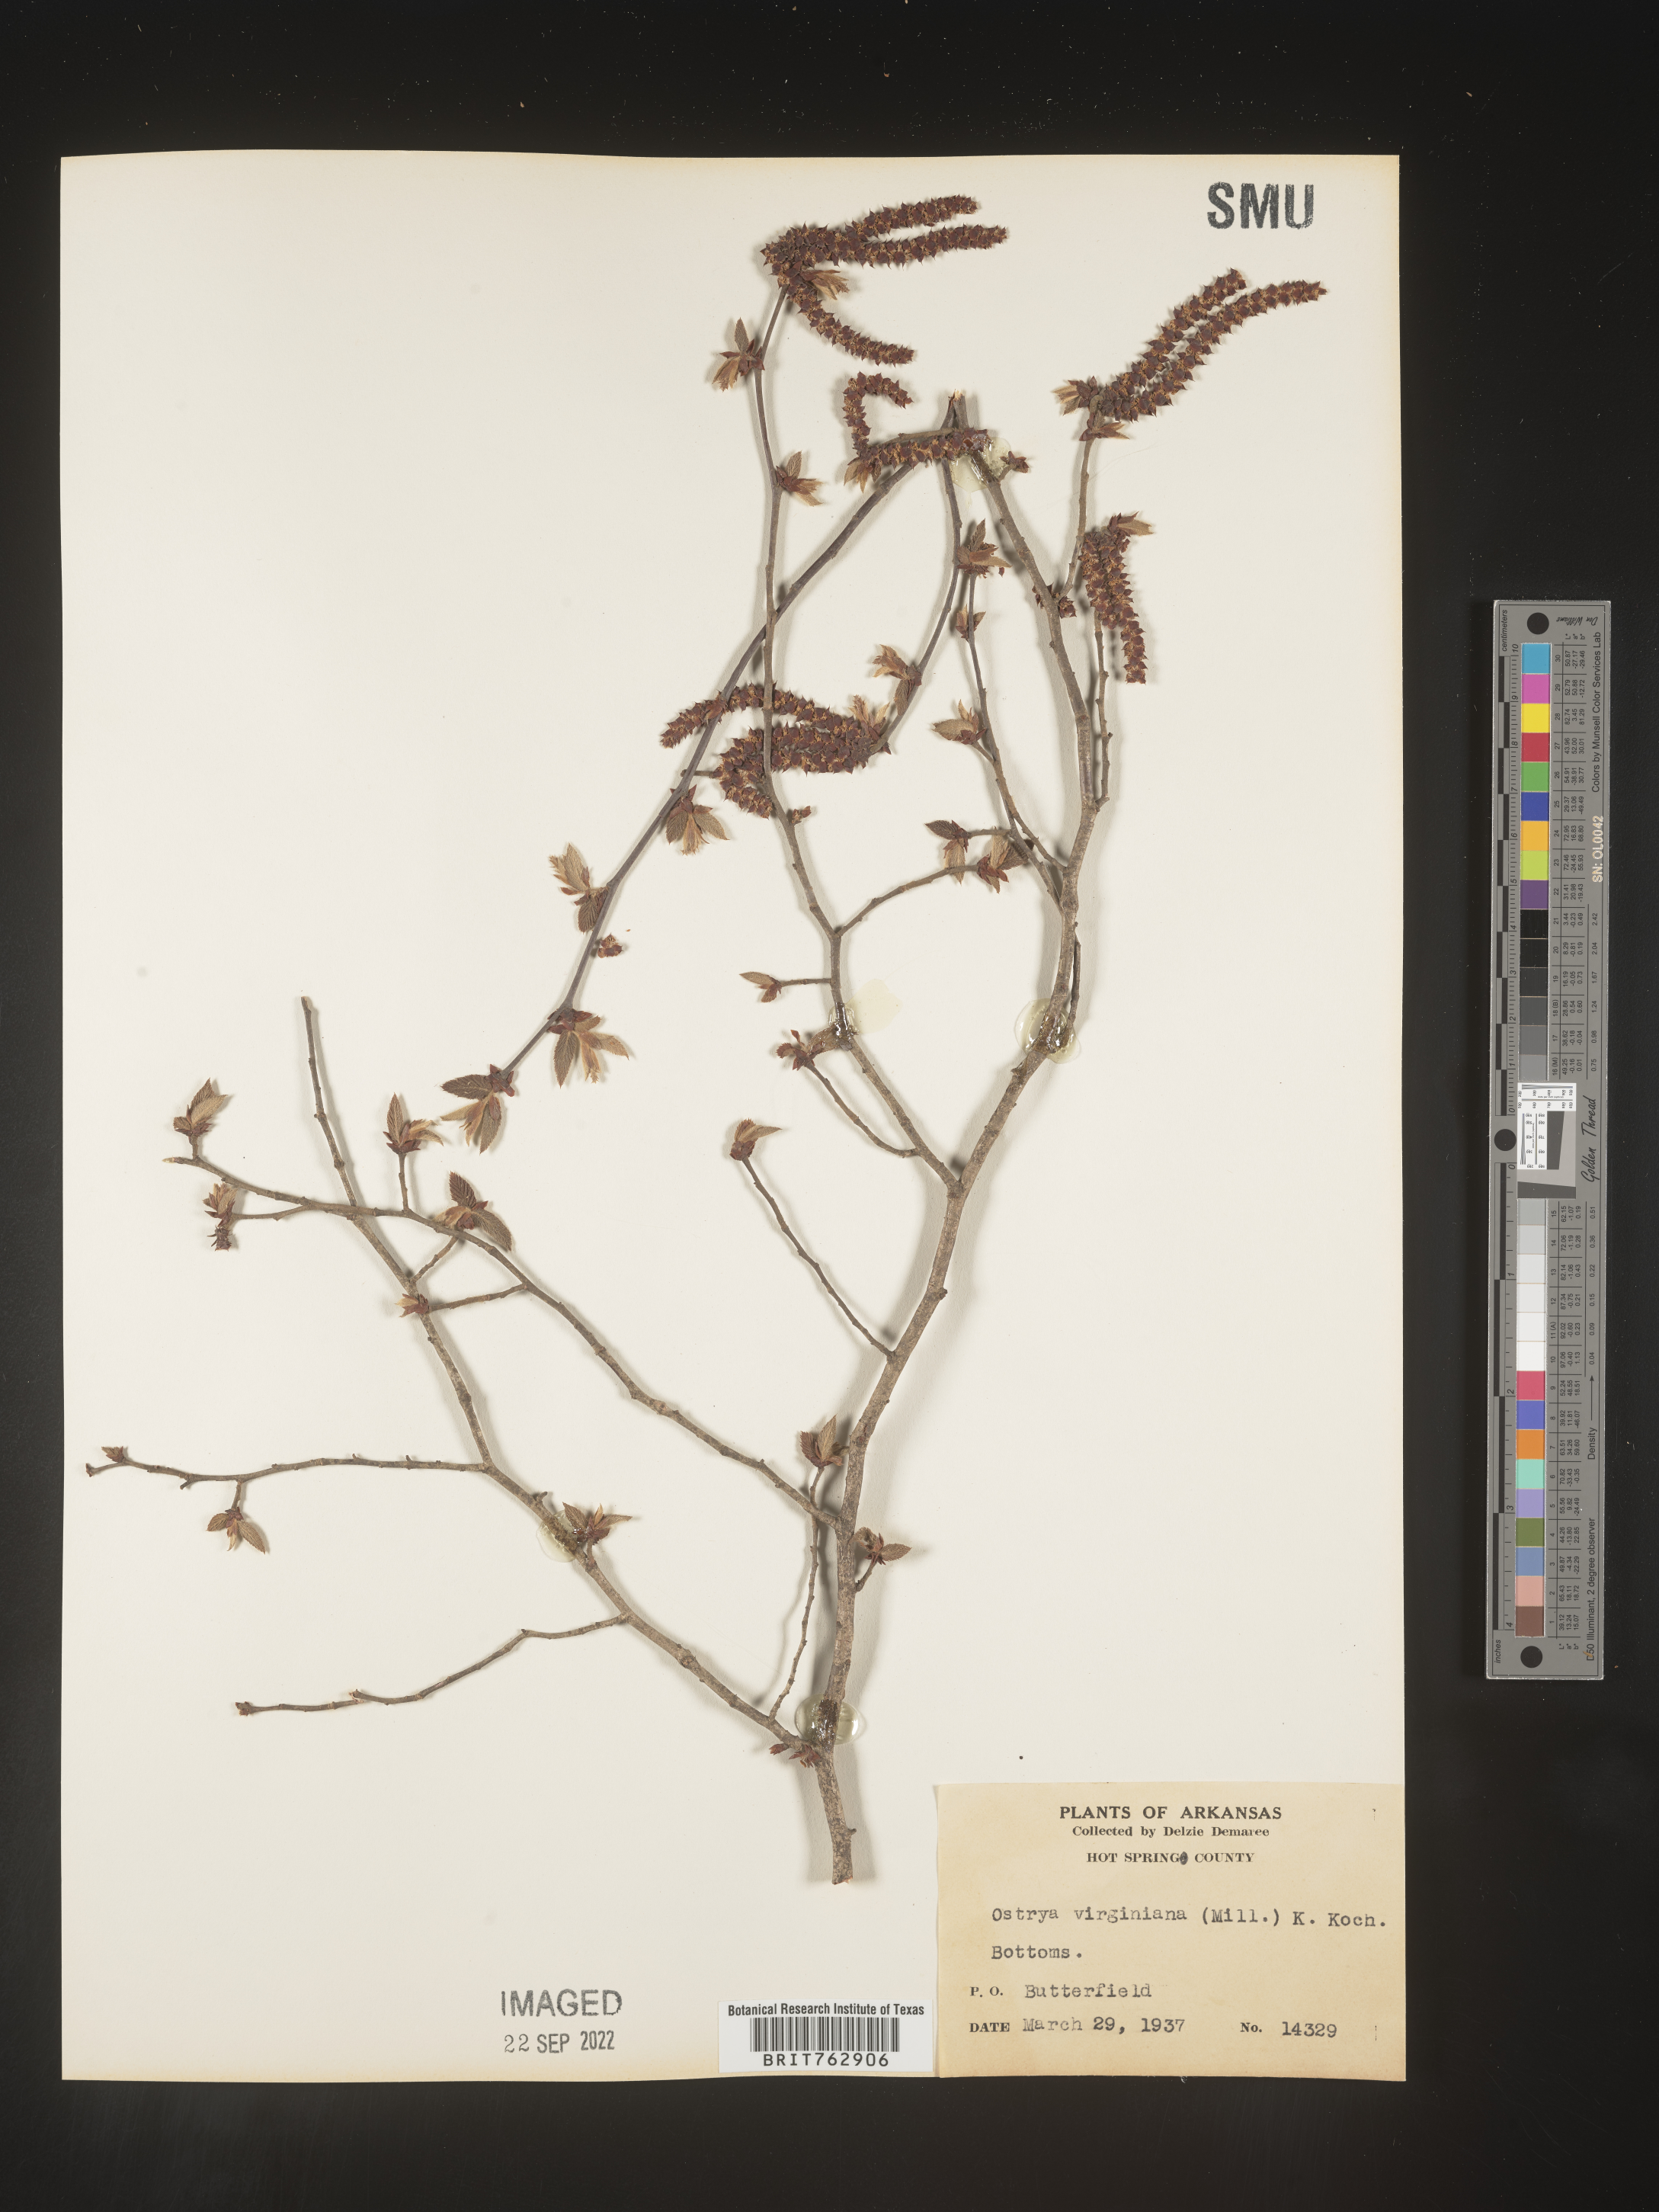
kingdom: Plantae
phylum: Tracheophyta
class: Magnoliopsida
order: Fagales
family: Betulaceae
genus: Ostrya
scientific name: Ostrya virginiana
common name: Ironwood
